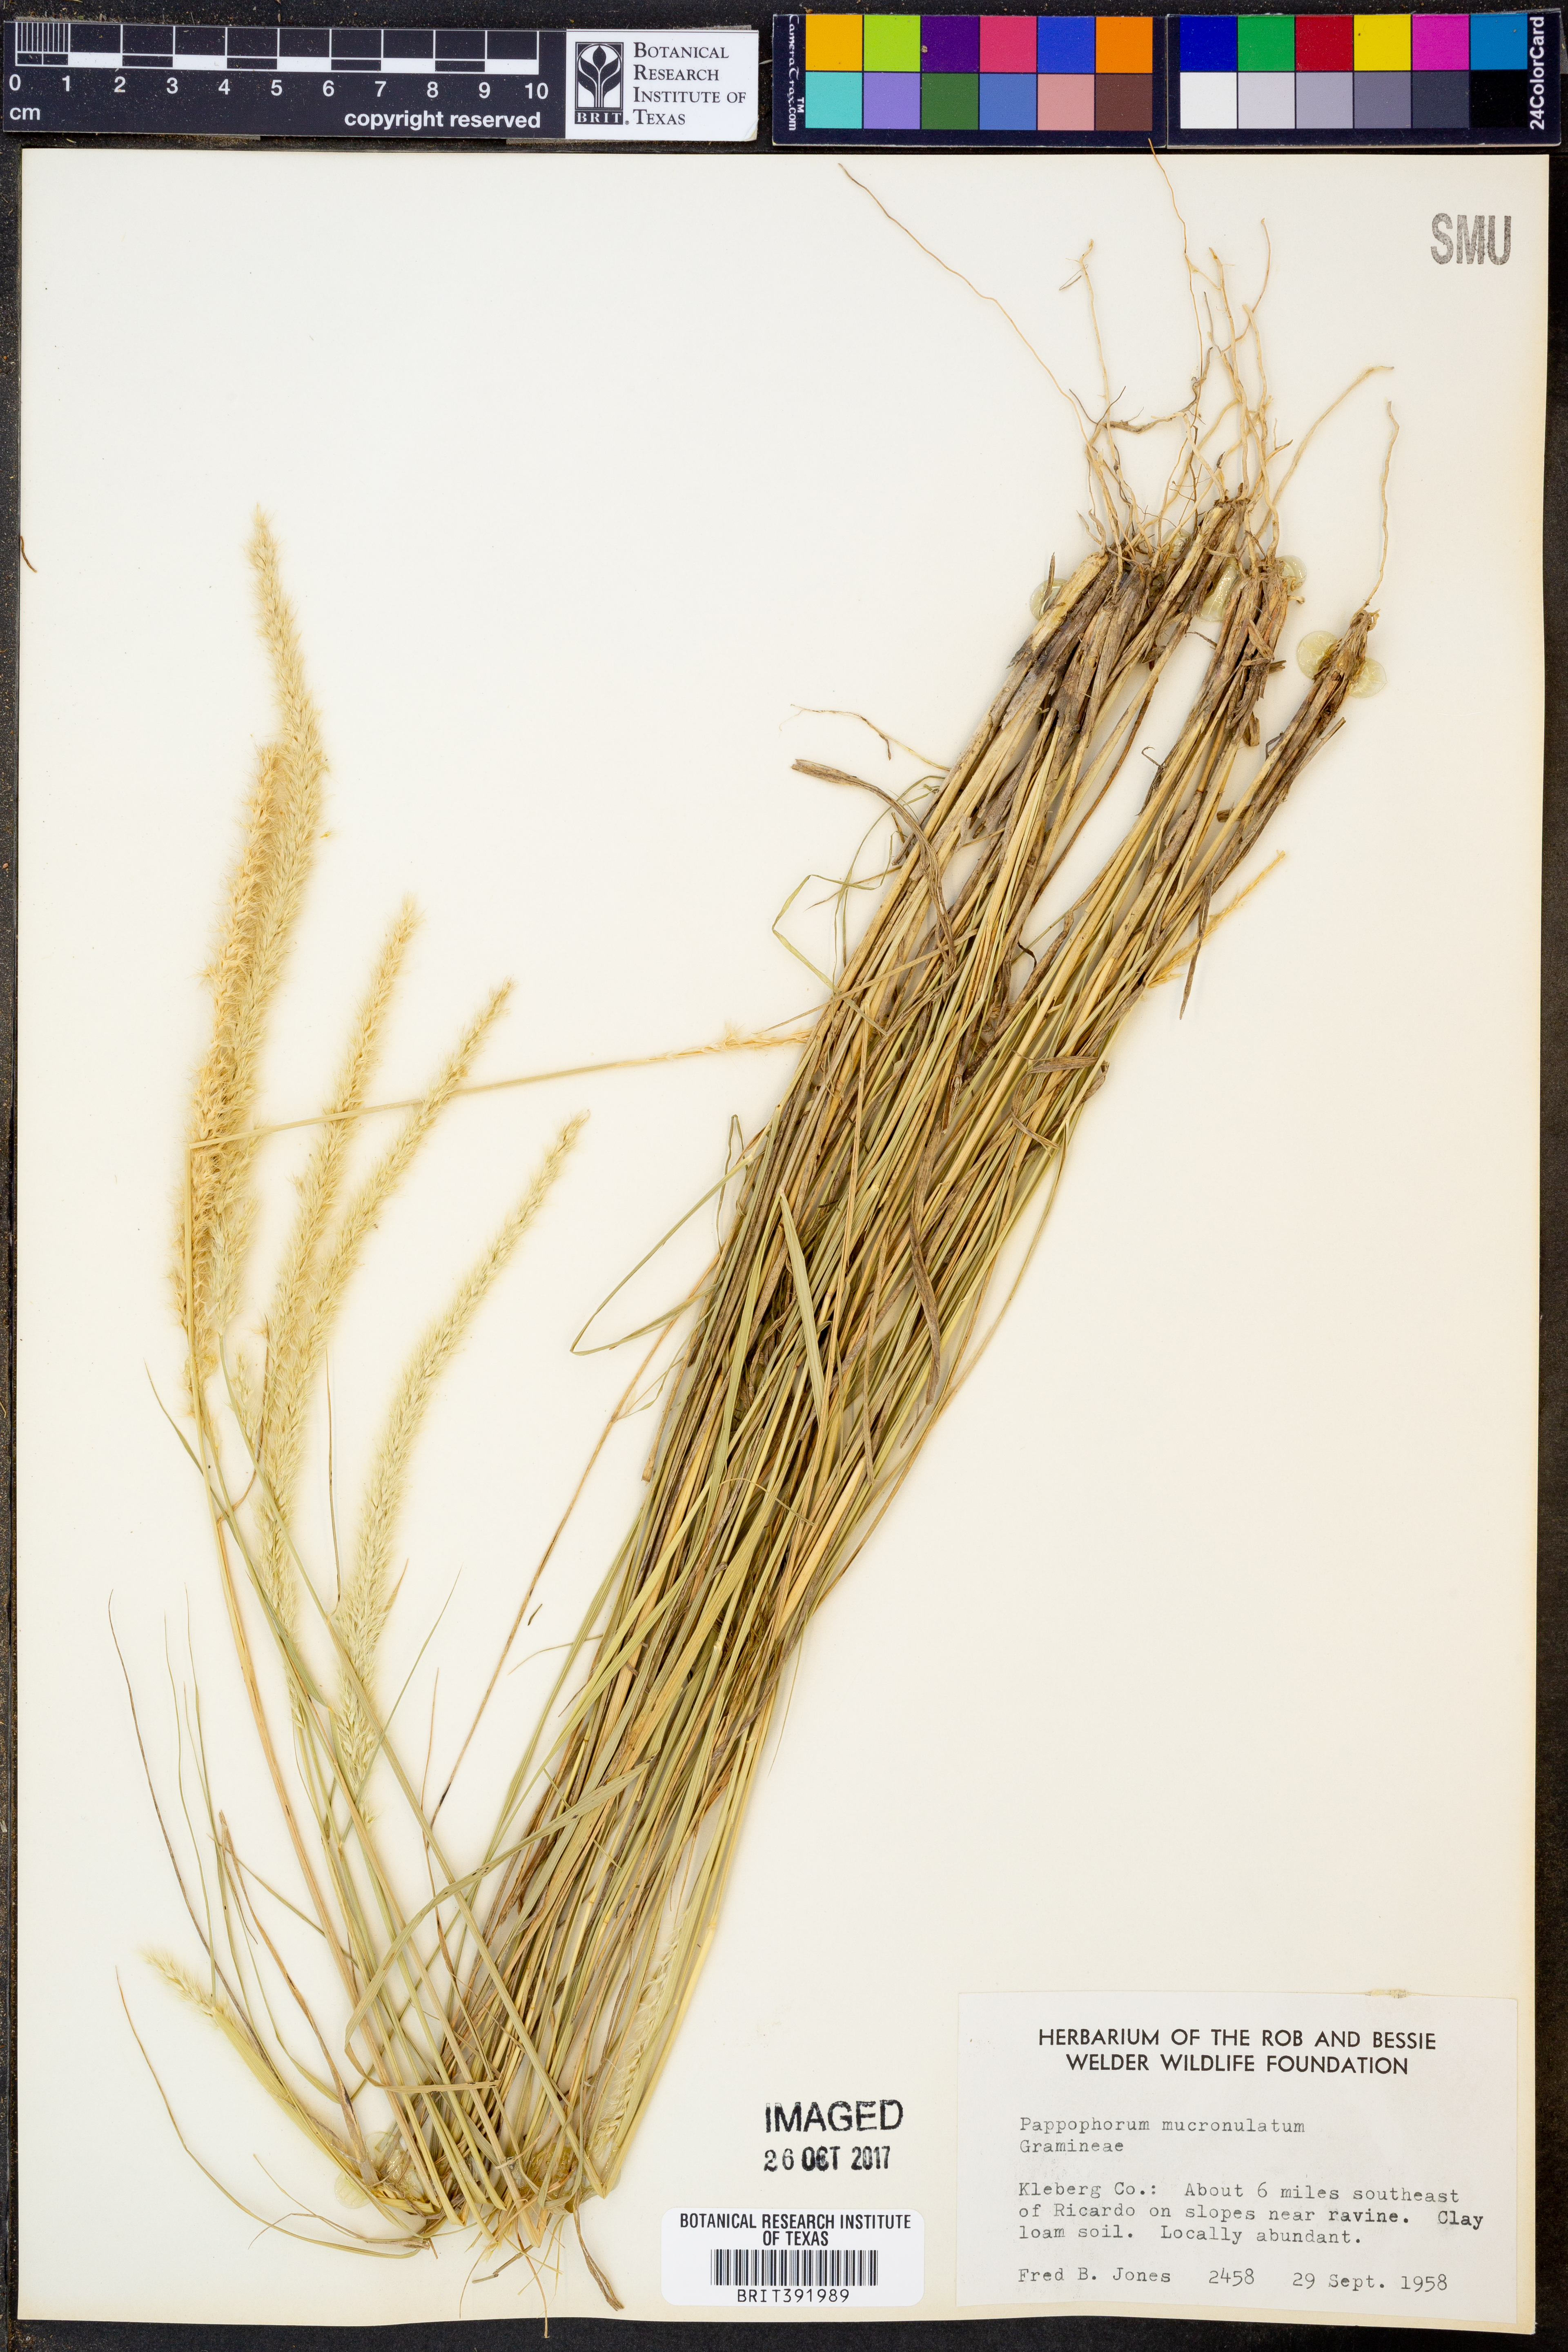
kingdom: Plantae
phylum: Tracheophyta
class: Liliopsida
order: Poales
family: Poaceae
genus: Pappophorum
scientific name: Pappophorum mucronulatum
